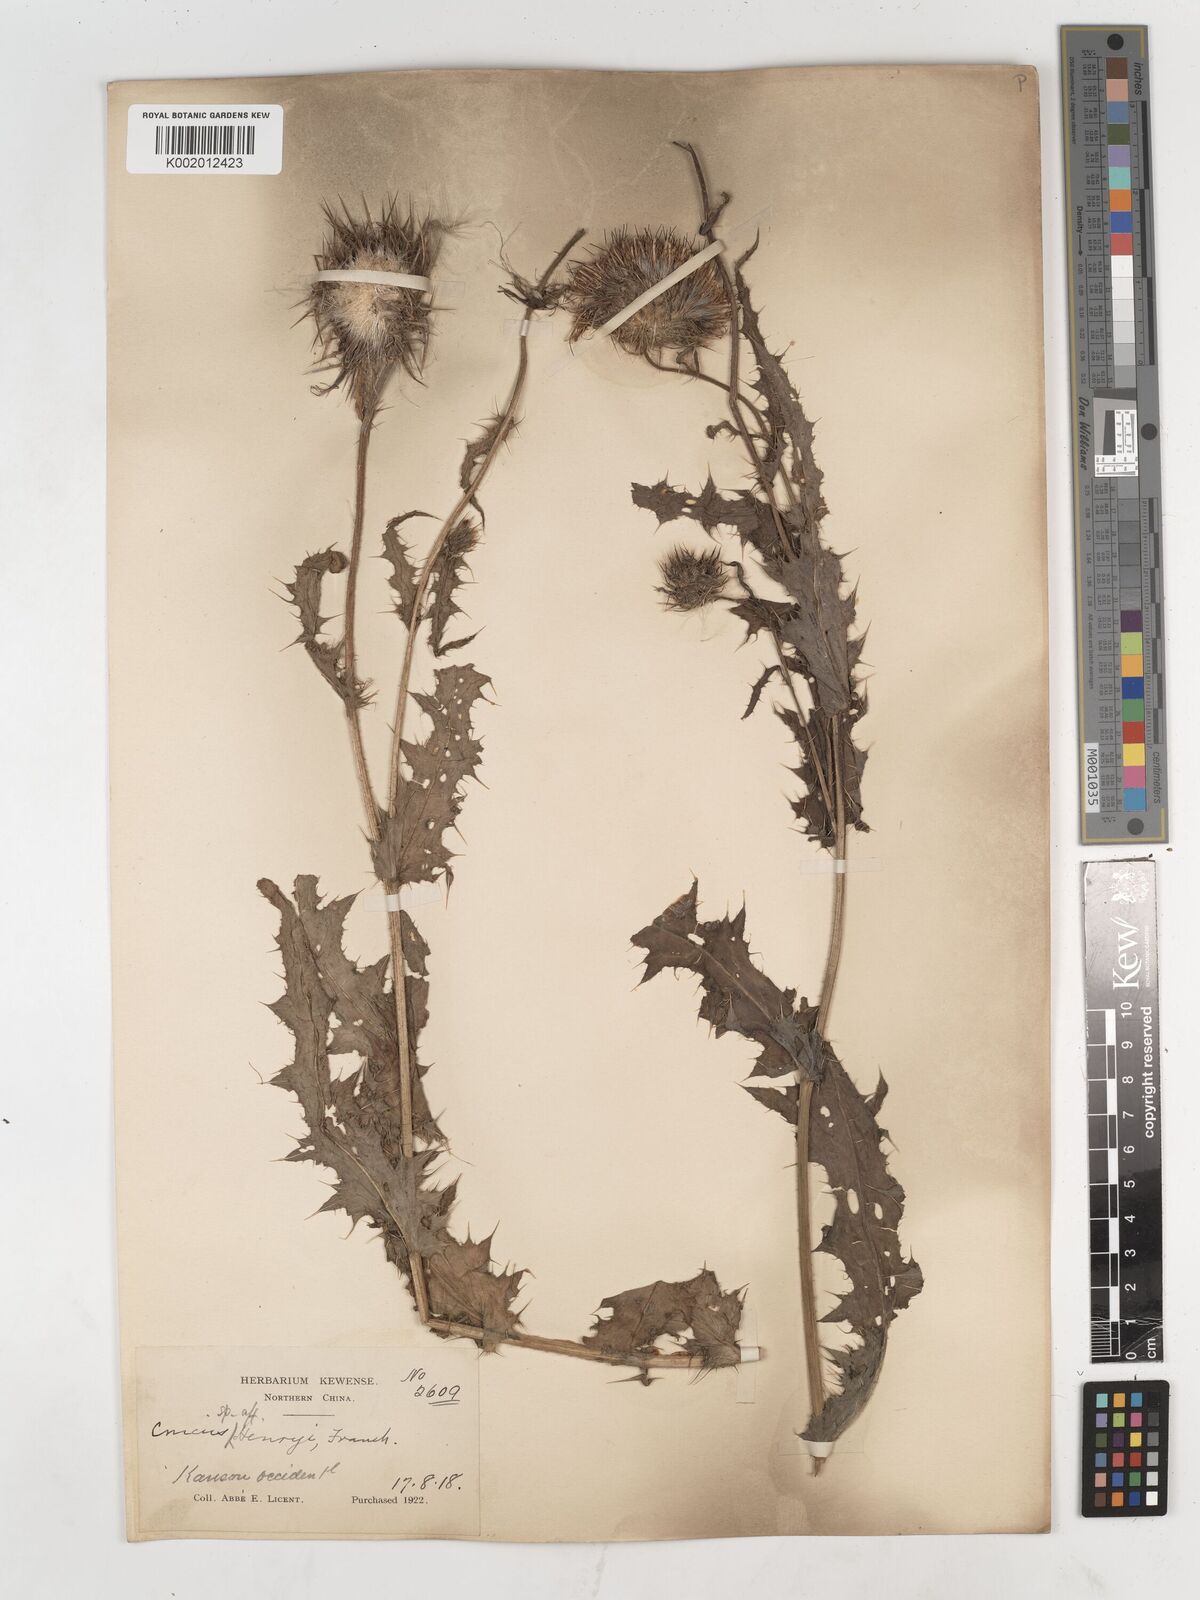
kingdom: Plantae
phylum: Tracheophyta
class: Magnoliopsida
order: Asterales
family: Asteraceae
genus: Cirsium
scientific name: Cirsium henryi
